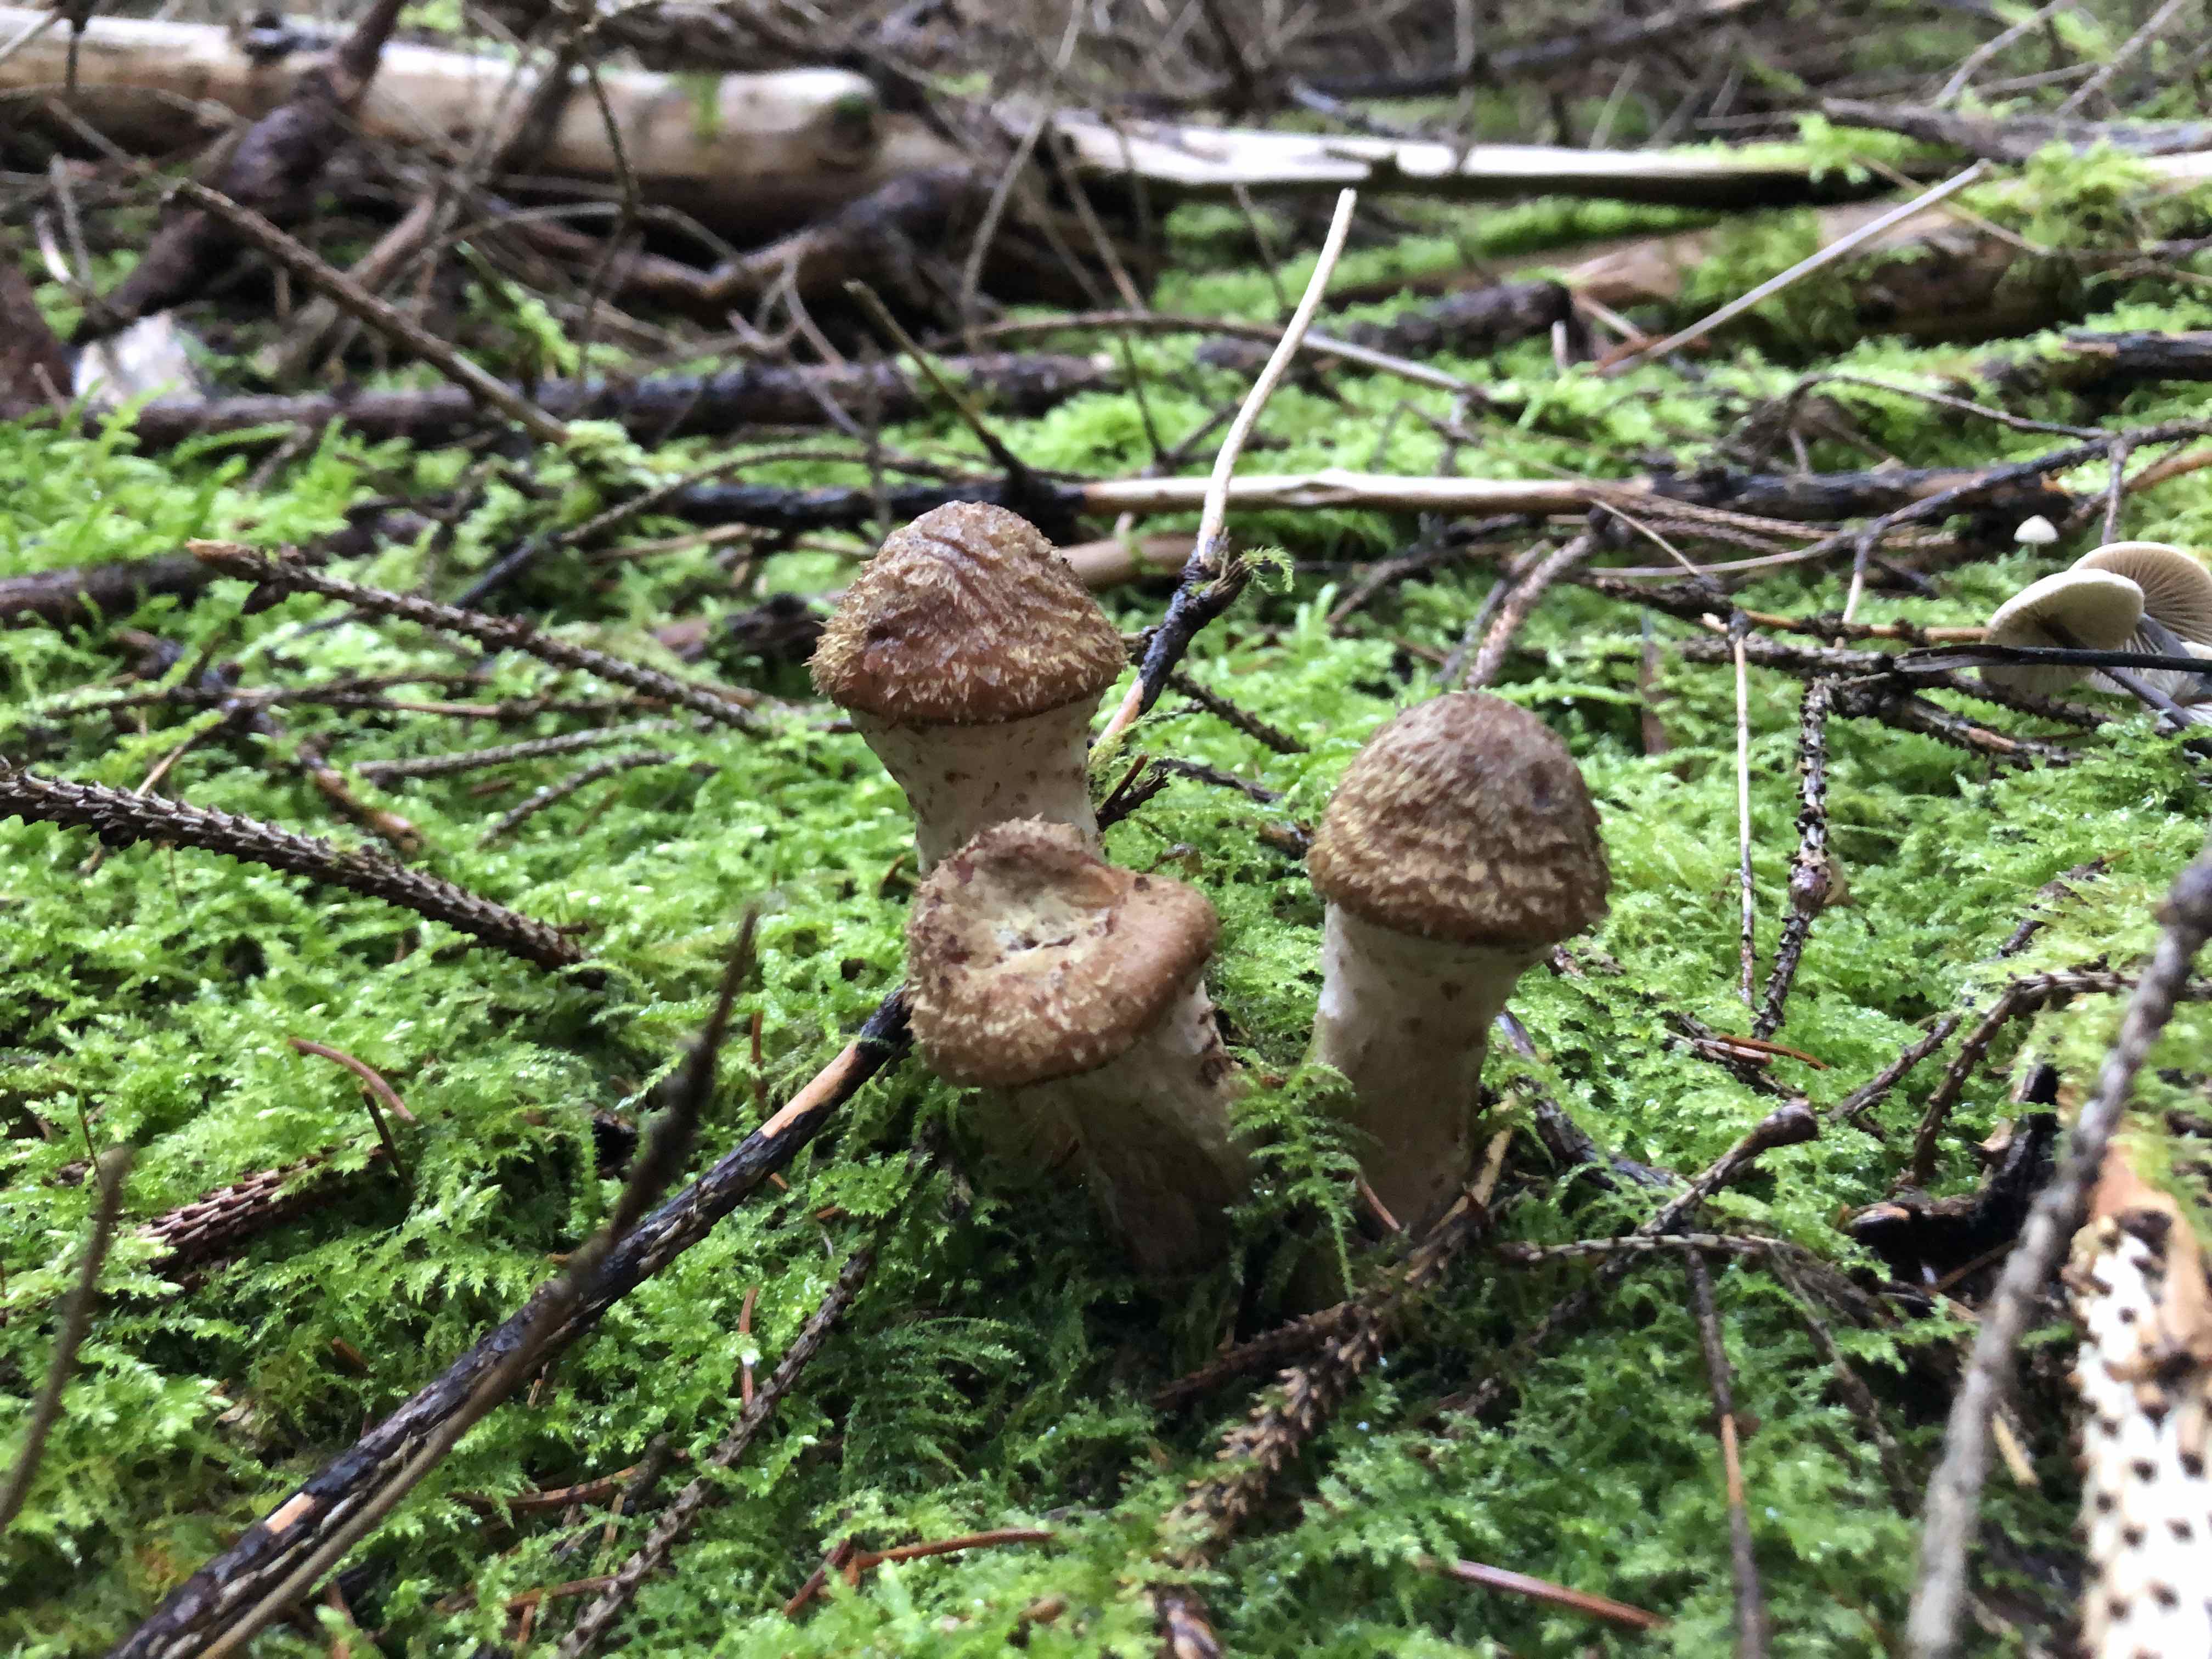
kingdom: Fungi
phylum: Basidiomycota
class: Agaricomycetes
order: Agaricales
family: Physalacriaceae
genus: Armillaria
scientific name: Armillaria ostoyae
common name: mørk honningsvamp
